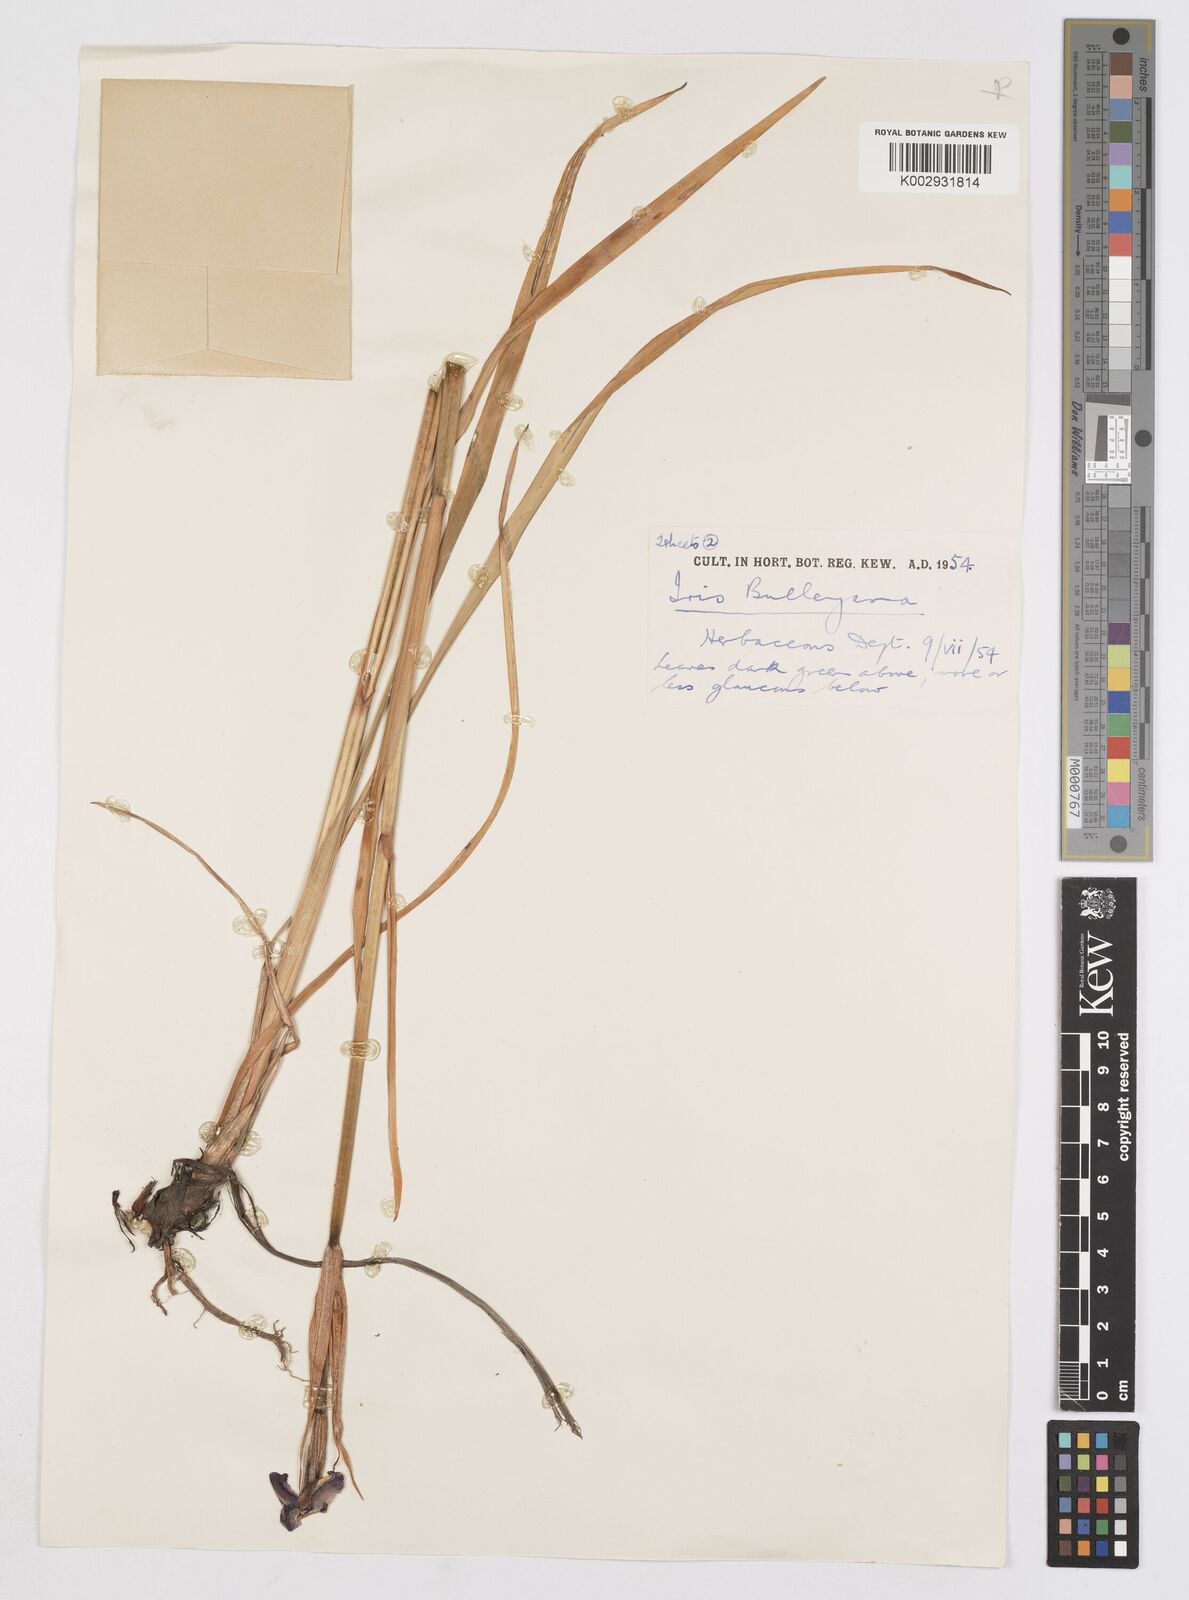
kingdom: Plantae
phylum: Tracheophyta
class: Liliopsida
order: Asparagales
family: Iridaceae
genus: Iris
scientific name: Iris clarkei
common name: Tibet iris
